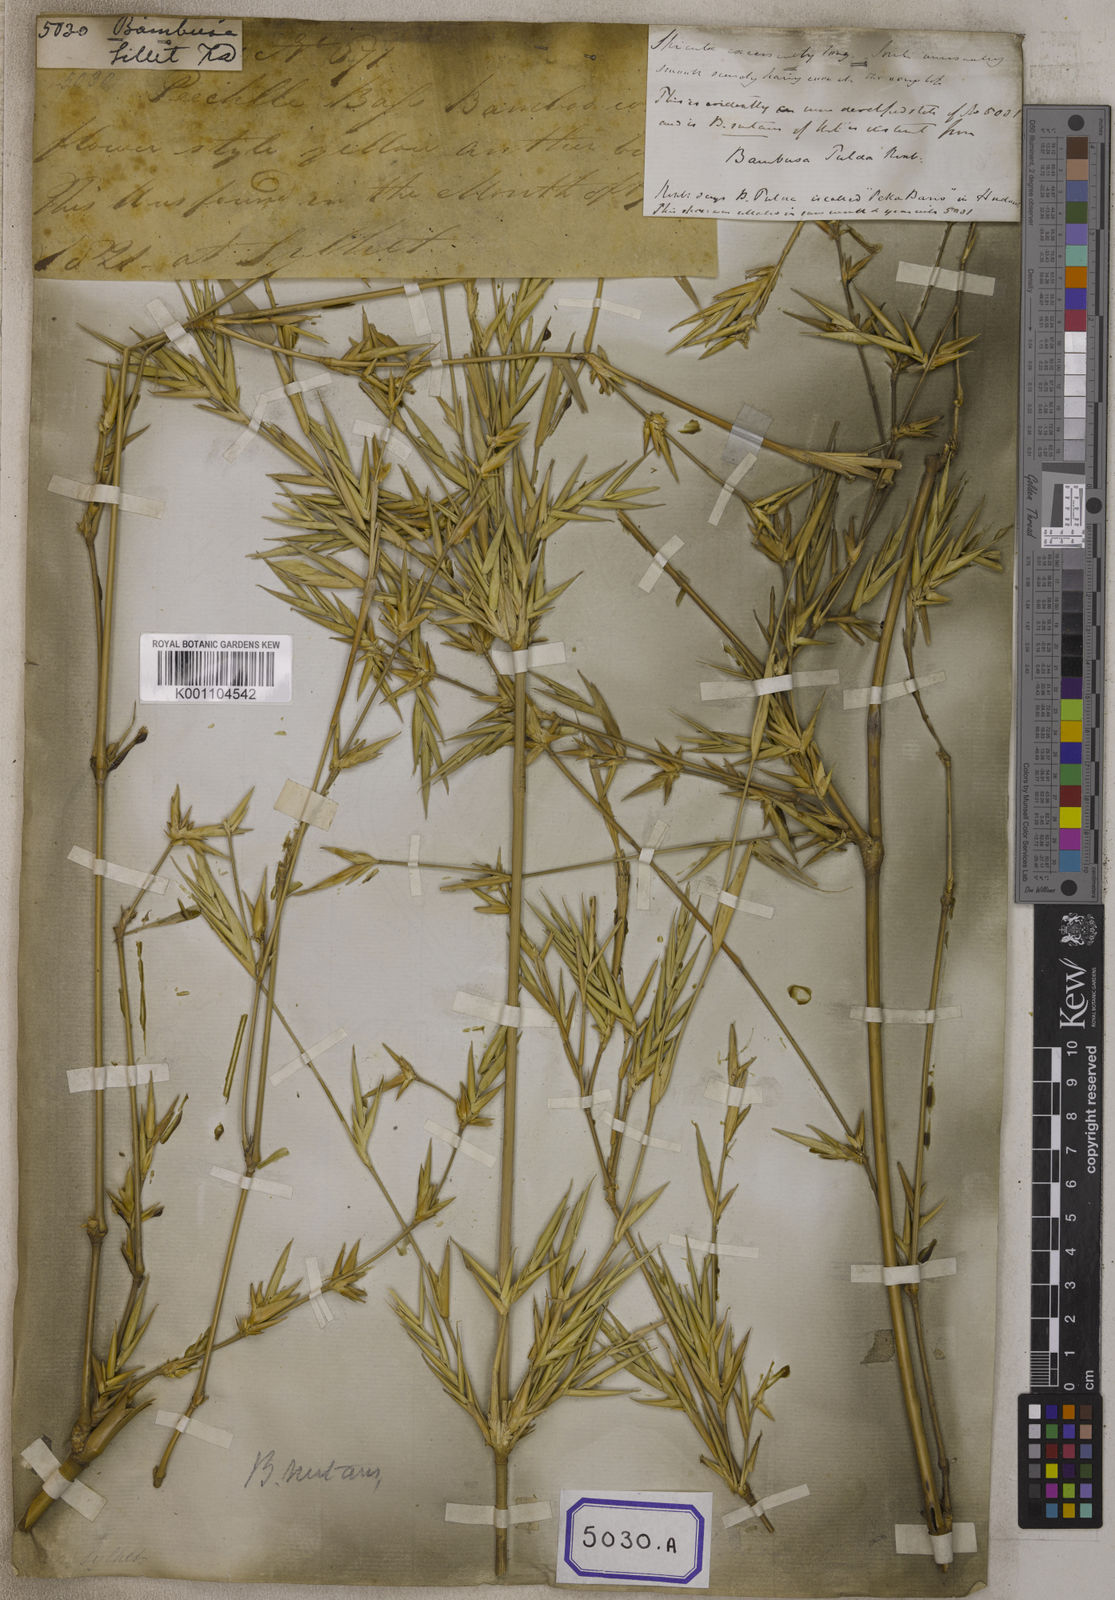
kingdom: Plantae
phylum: Tracheophyta
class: Liliopsida
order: Poales
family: Poaceae
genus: Bambusa
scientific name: Bambusa
